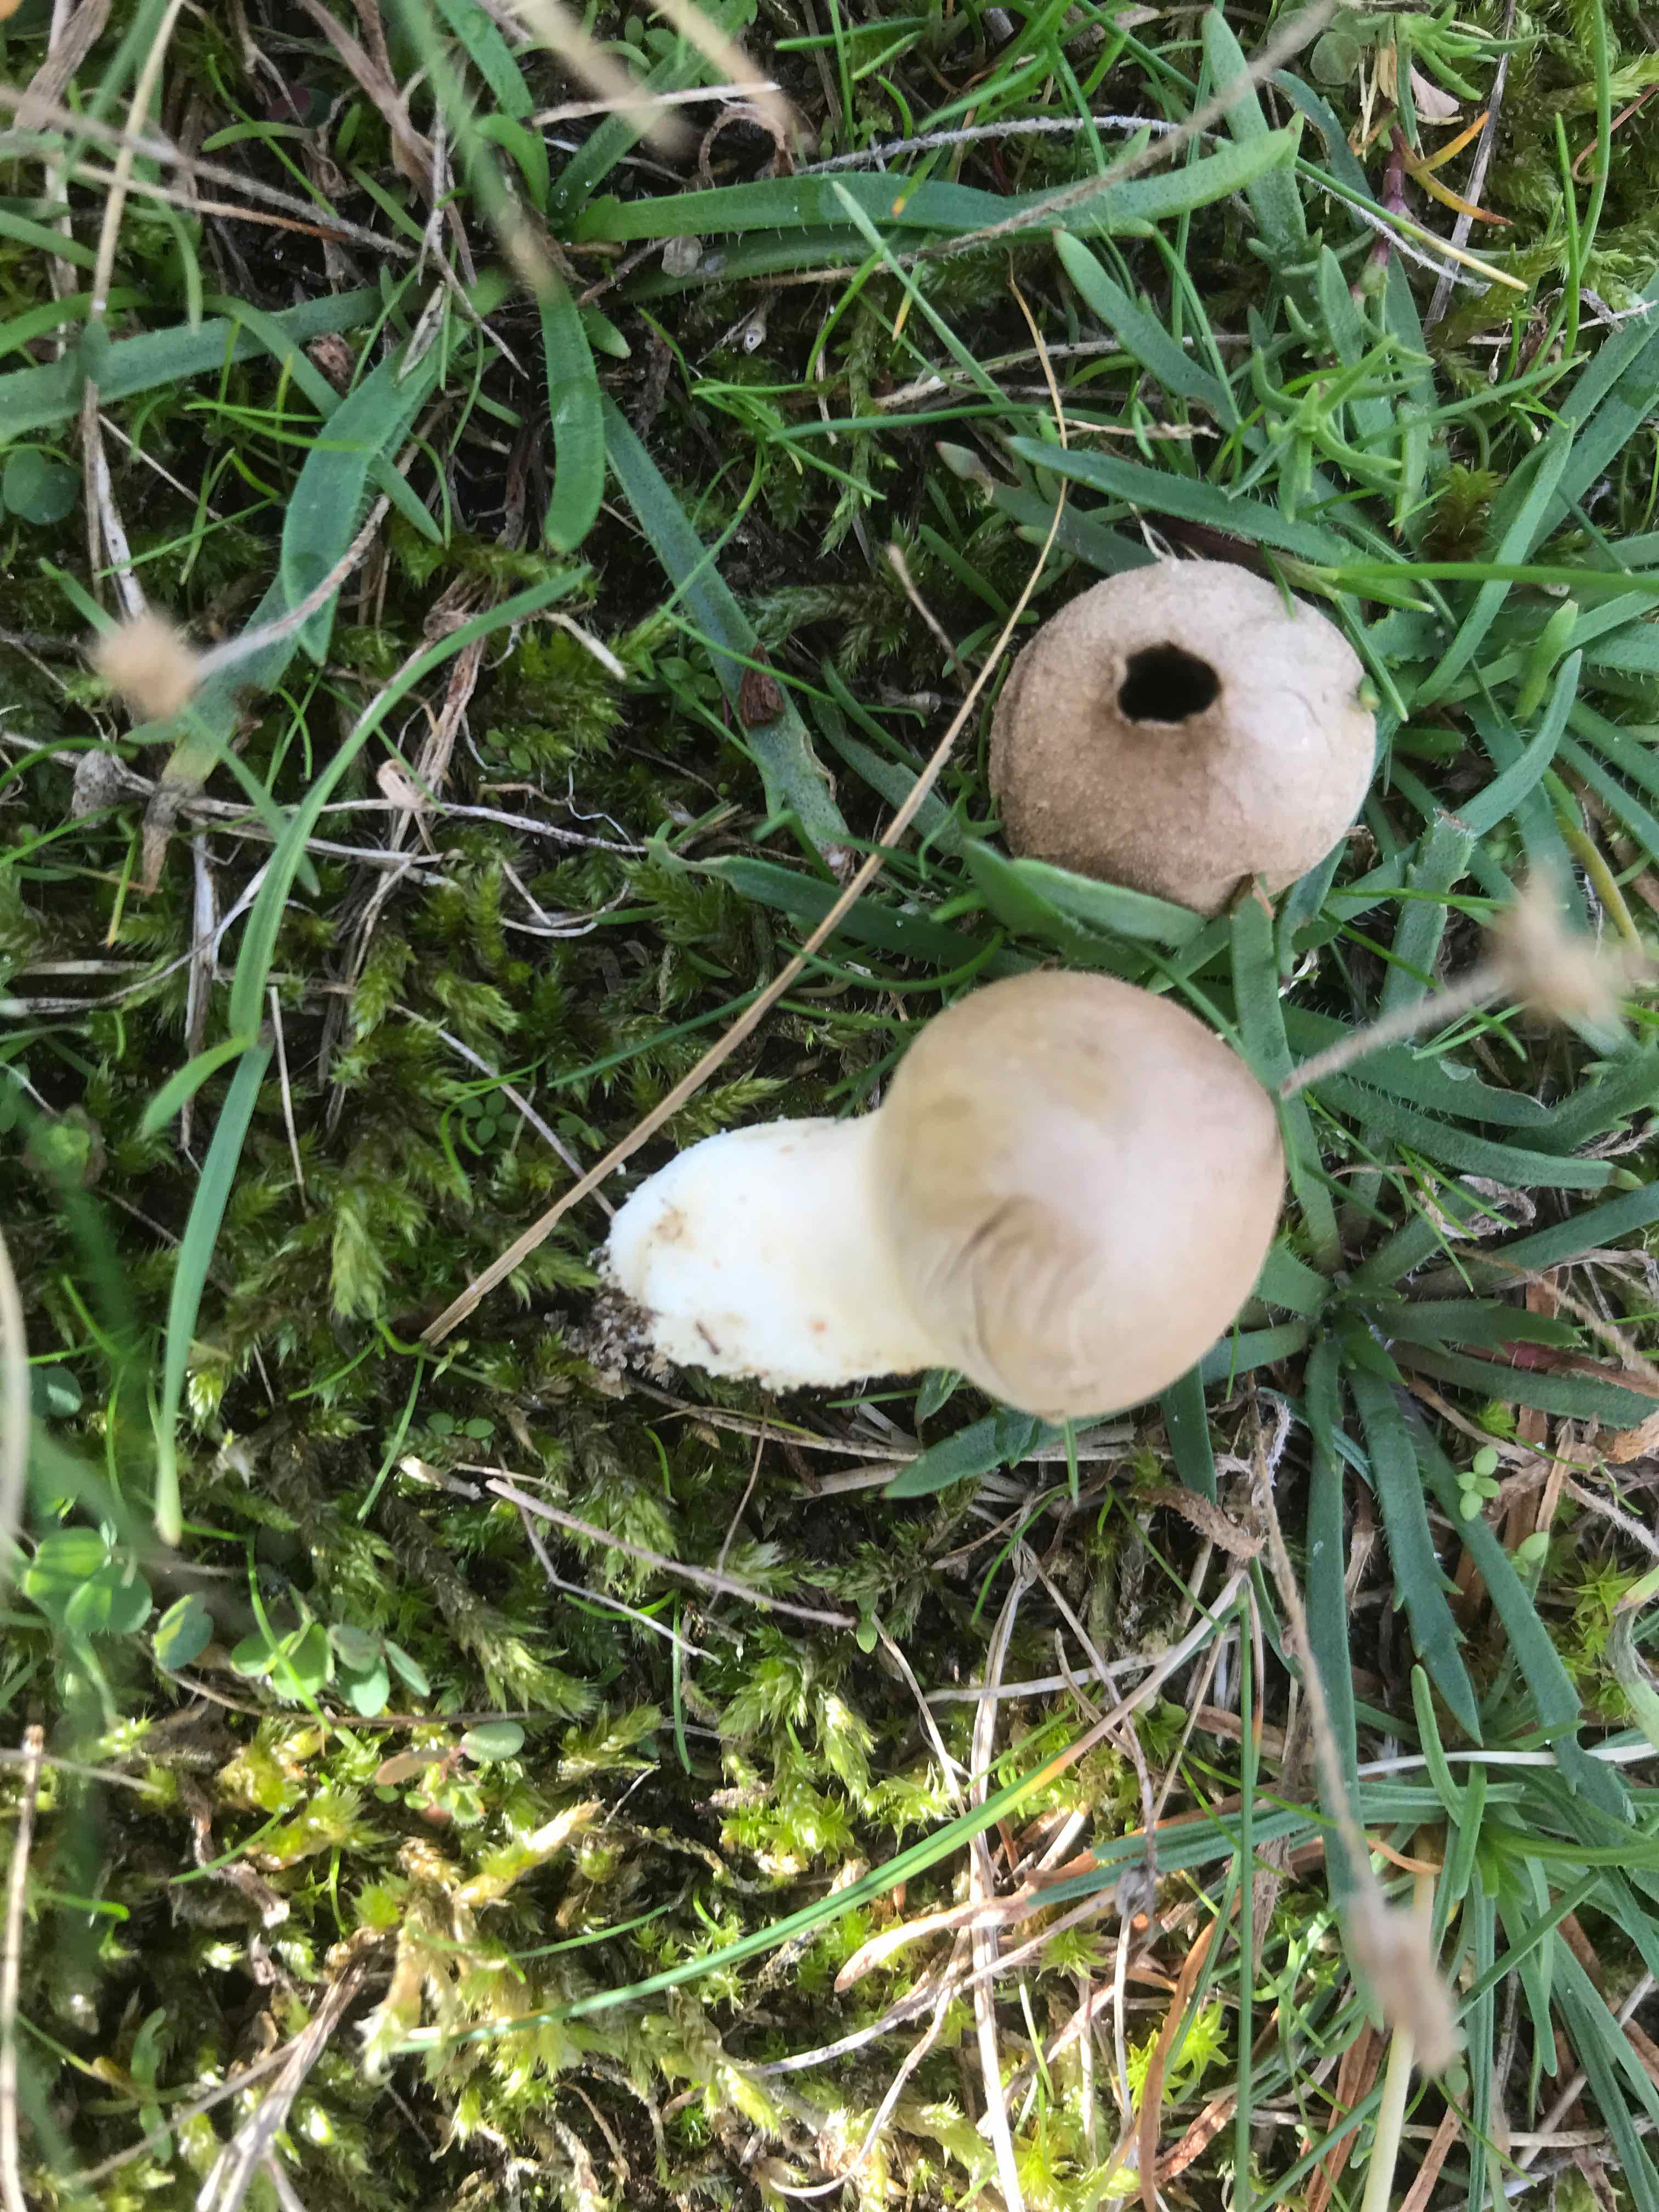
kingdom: Fungi
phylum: Basidiomycota
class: Agaricomycetes
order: Agaricales
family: Lycoperdaceae
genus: Lycoperdon
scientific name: Lycoperdon lividum
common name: mark-støvbold
